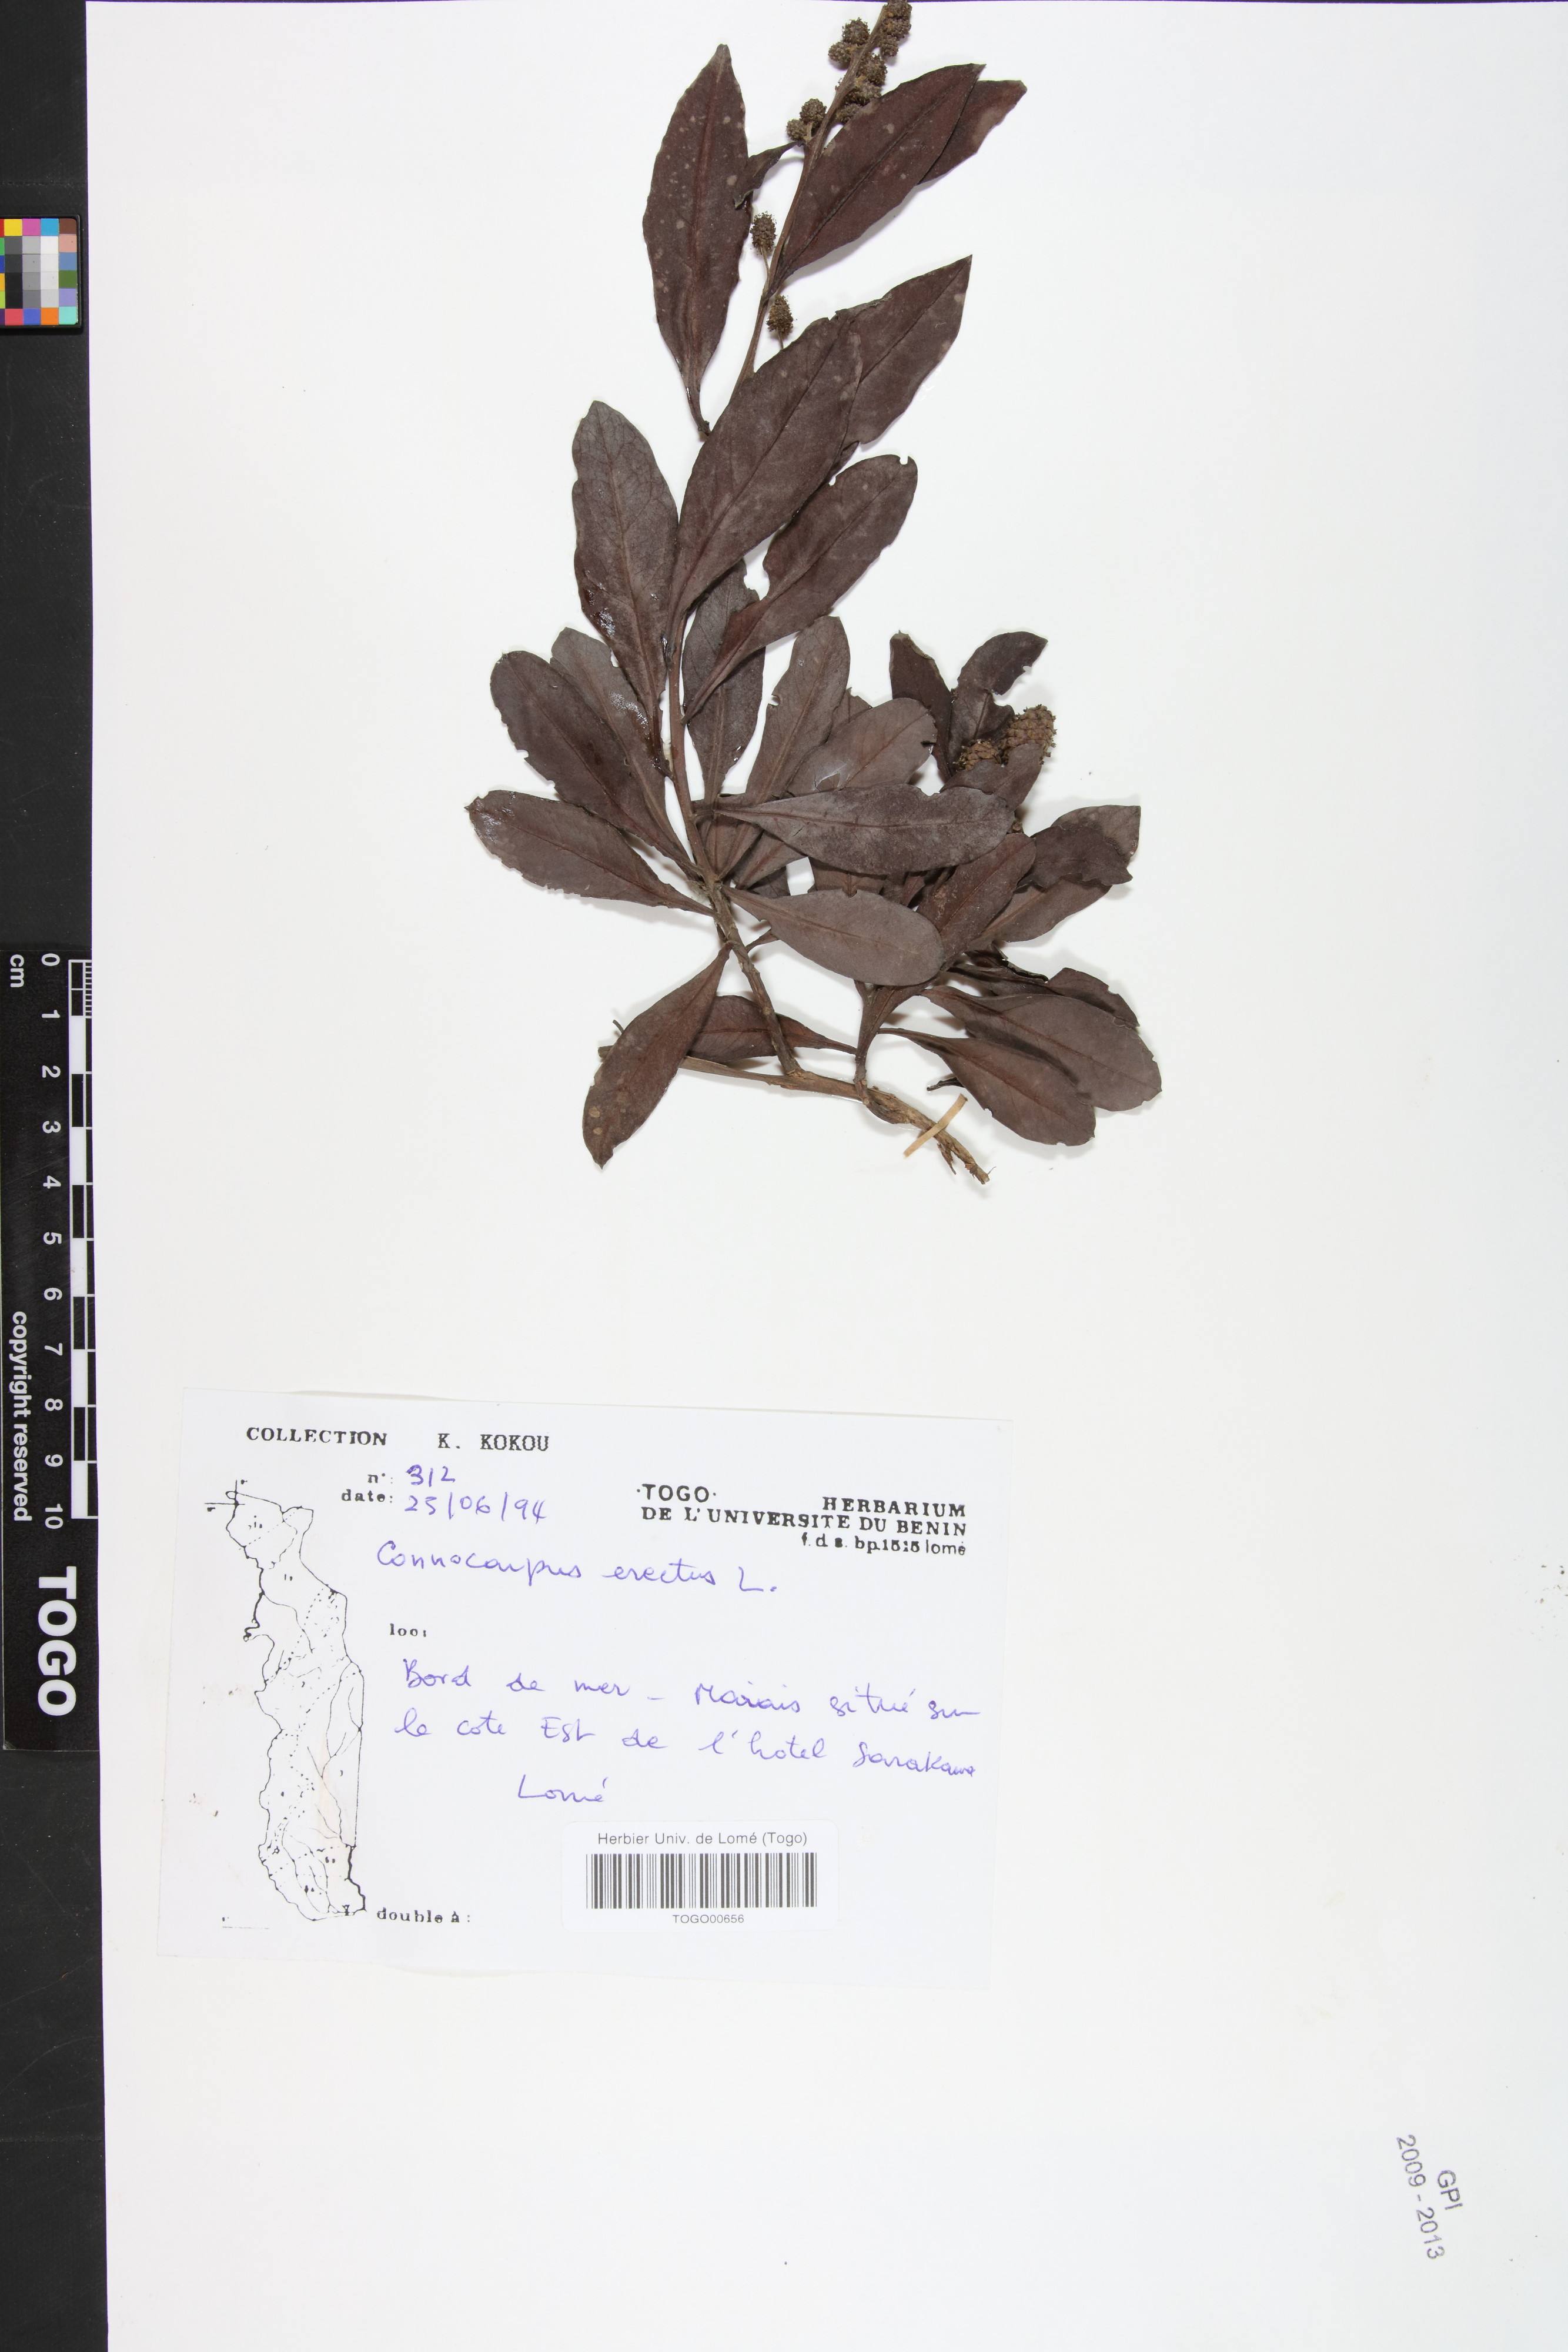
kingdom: Plantae
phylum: Tracheophyta
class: Magnoliopsida
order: Myrtales
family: Combretaceae
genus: Conocarpus
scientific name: Conocarpus erectus
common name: Button mangrove
